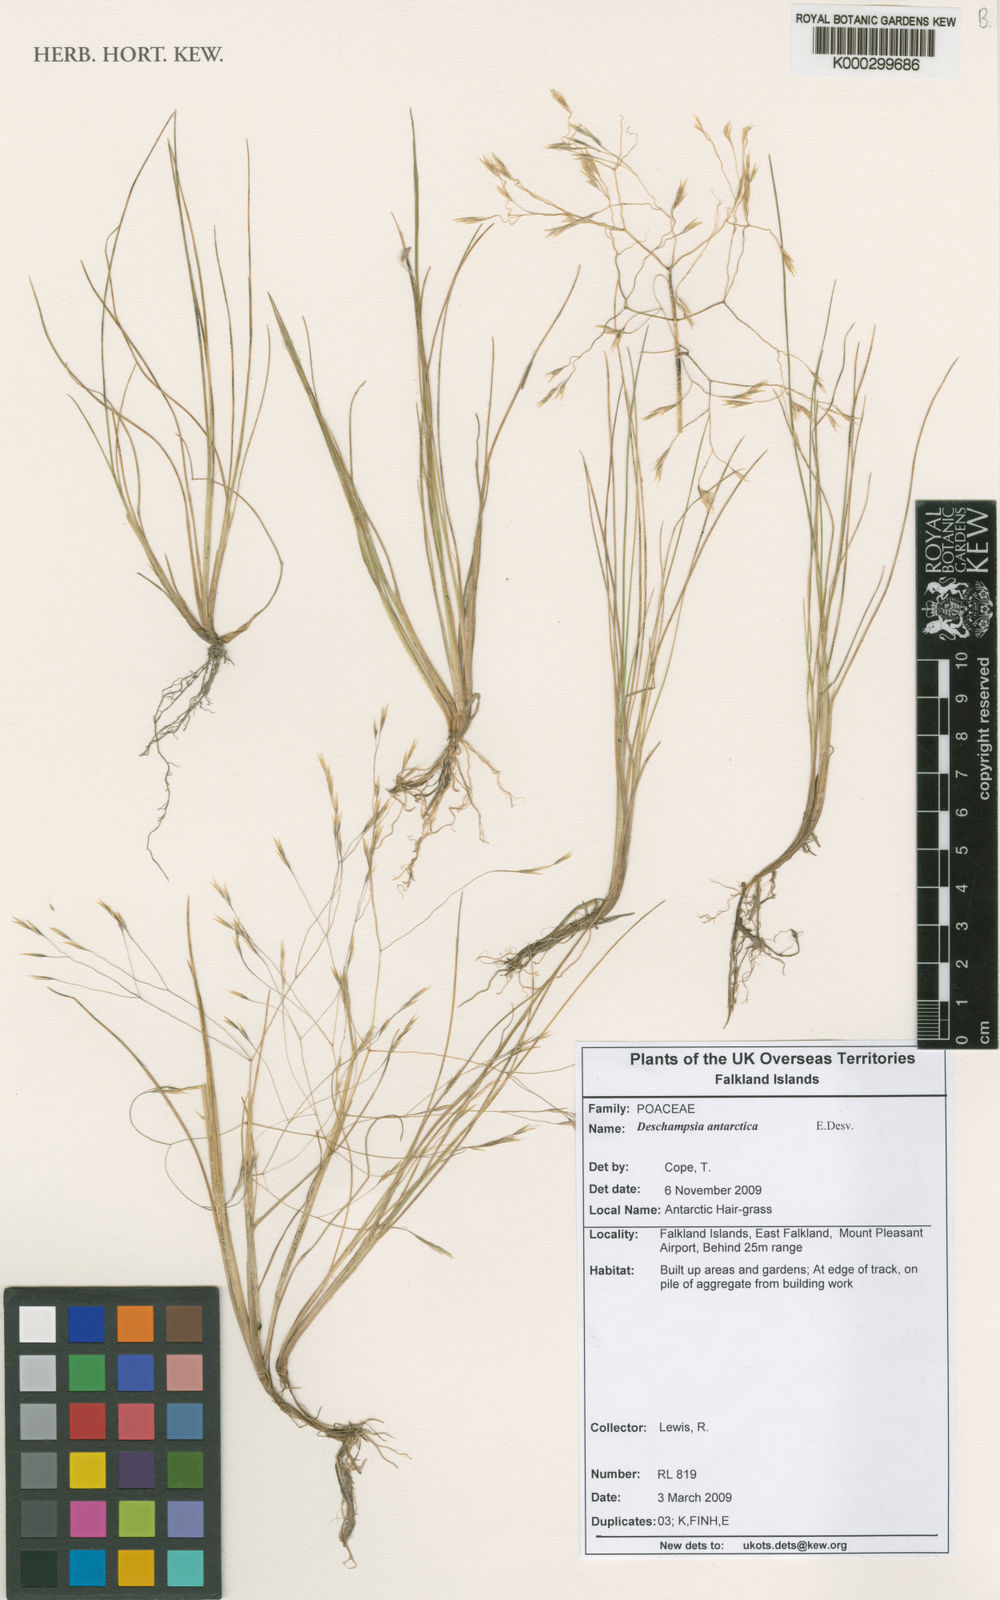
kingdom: Plantae
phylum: Tracheophyta
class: Liliopsida
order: Poales
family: Poaceae
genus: Deschampsia
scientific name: Deschampsia antarctica
